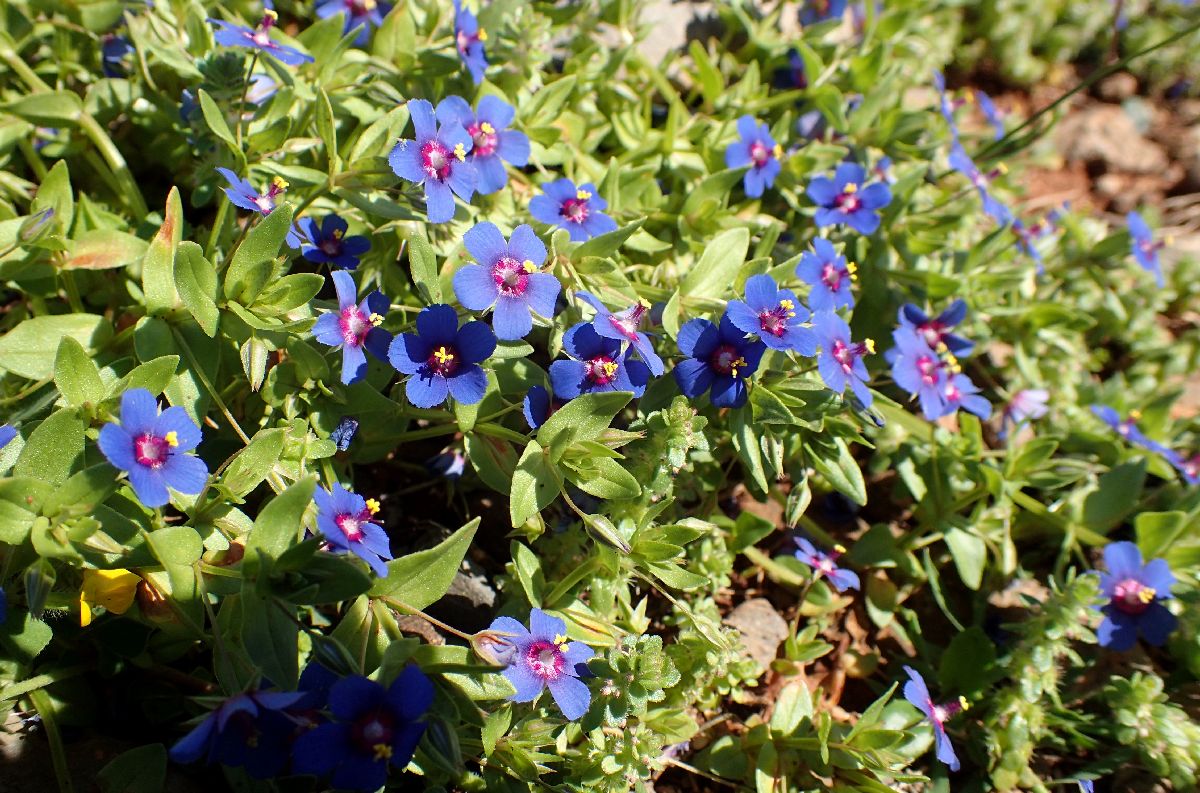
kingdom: Plantae
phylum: Tracheophyta
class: Magnoliopsida
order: Ericales
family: Primulaceae
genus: Lysimachia
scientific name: Lysimachia arvensis
